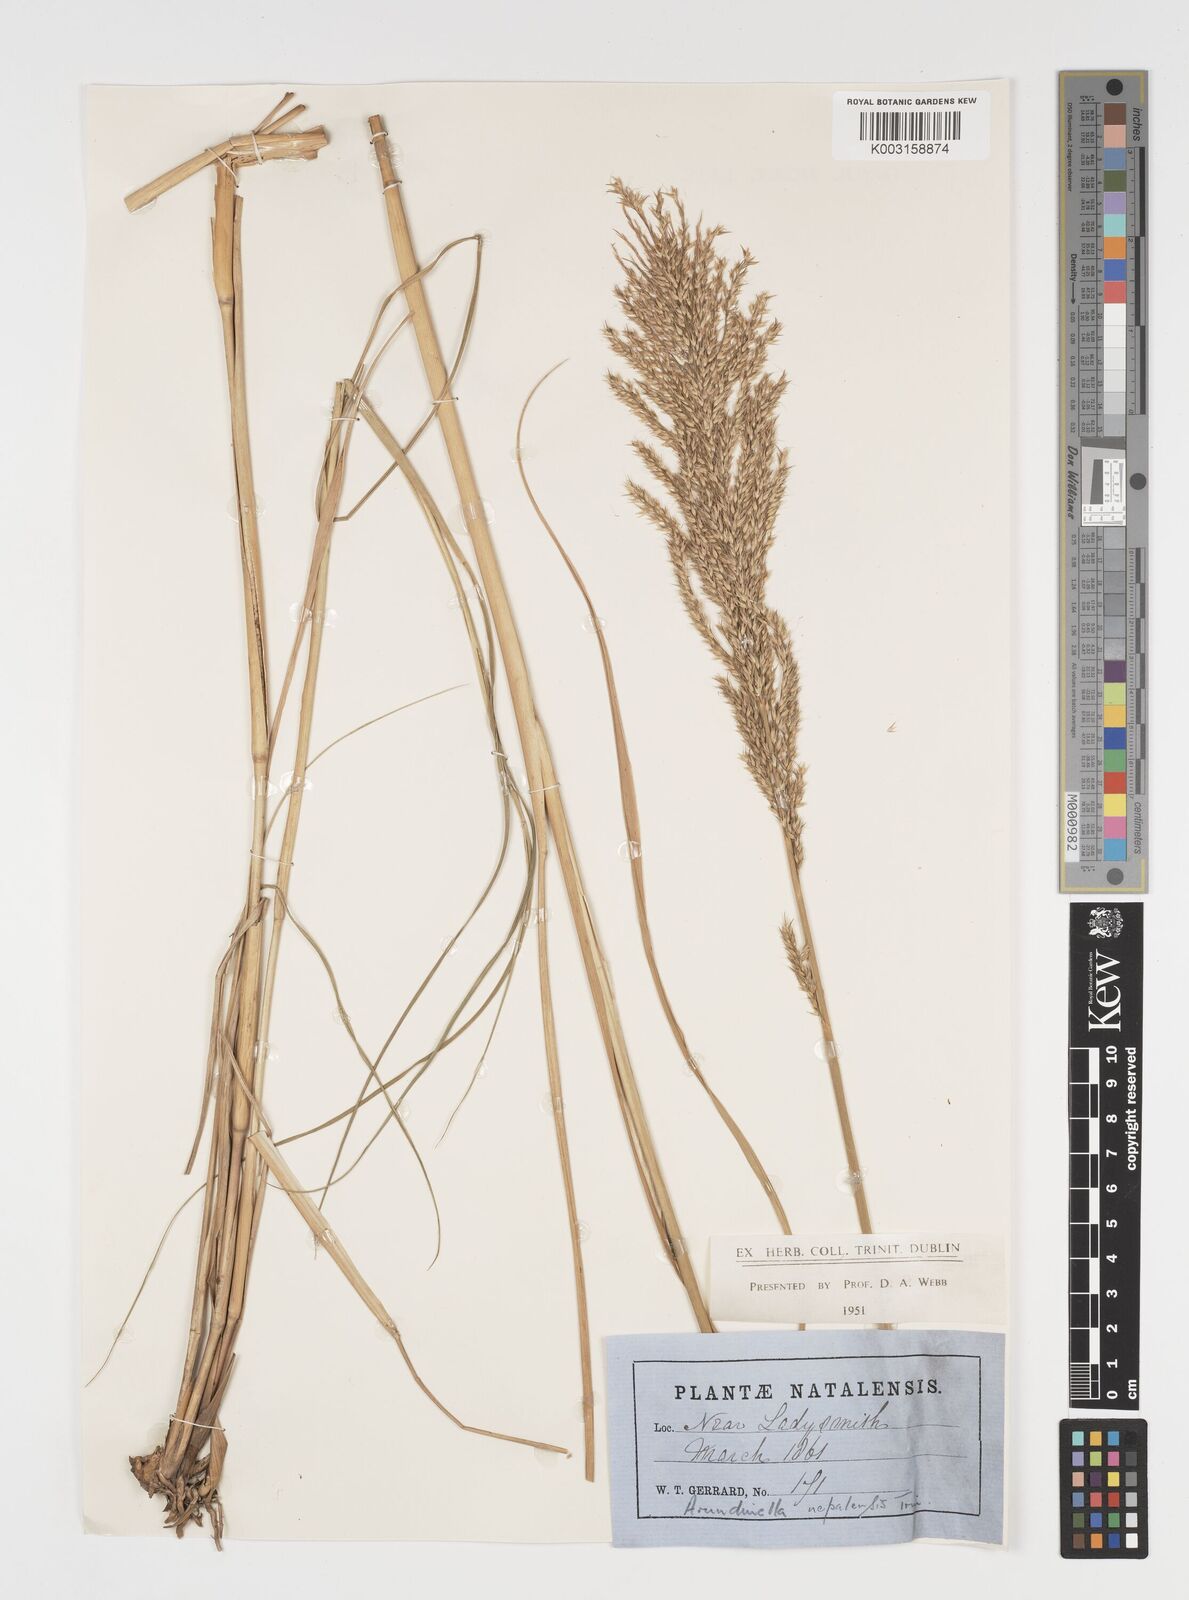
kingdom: Plantae
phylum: Tracheophyta
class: Liliopsida
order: Poales
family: Poaceae
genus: Arundinella
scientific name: Arundinella nepalensis
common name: Reed grass
